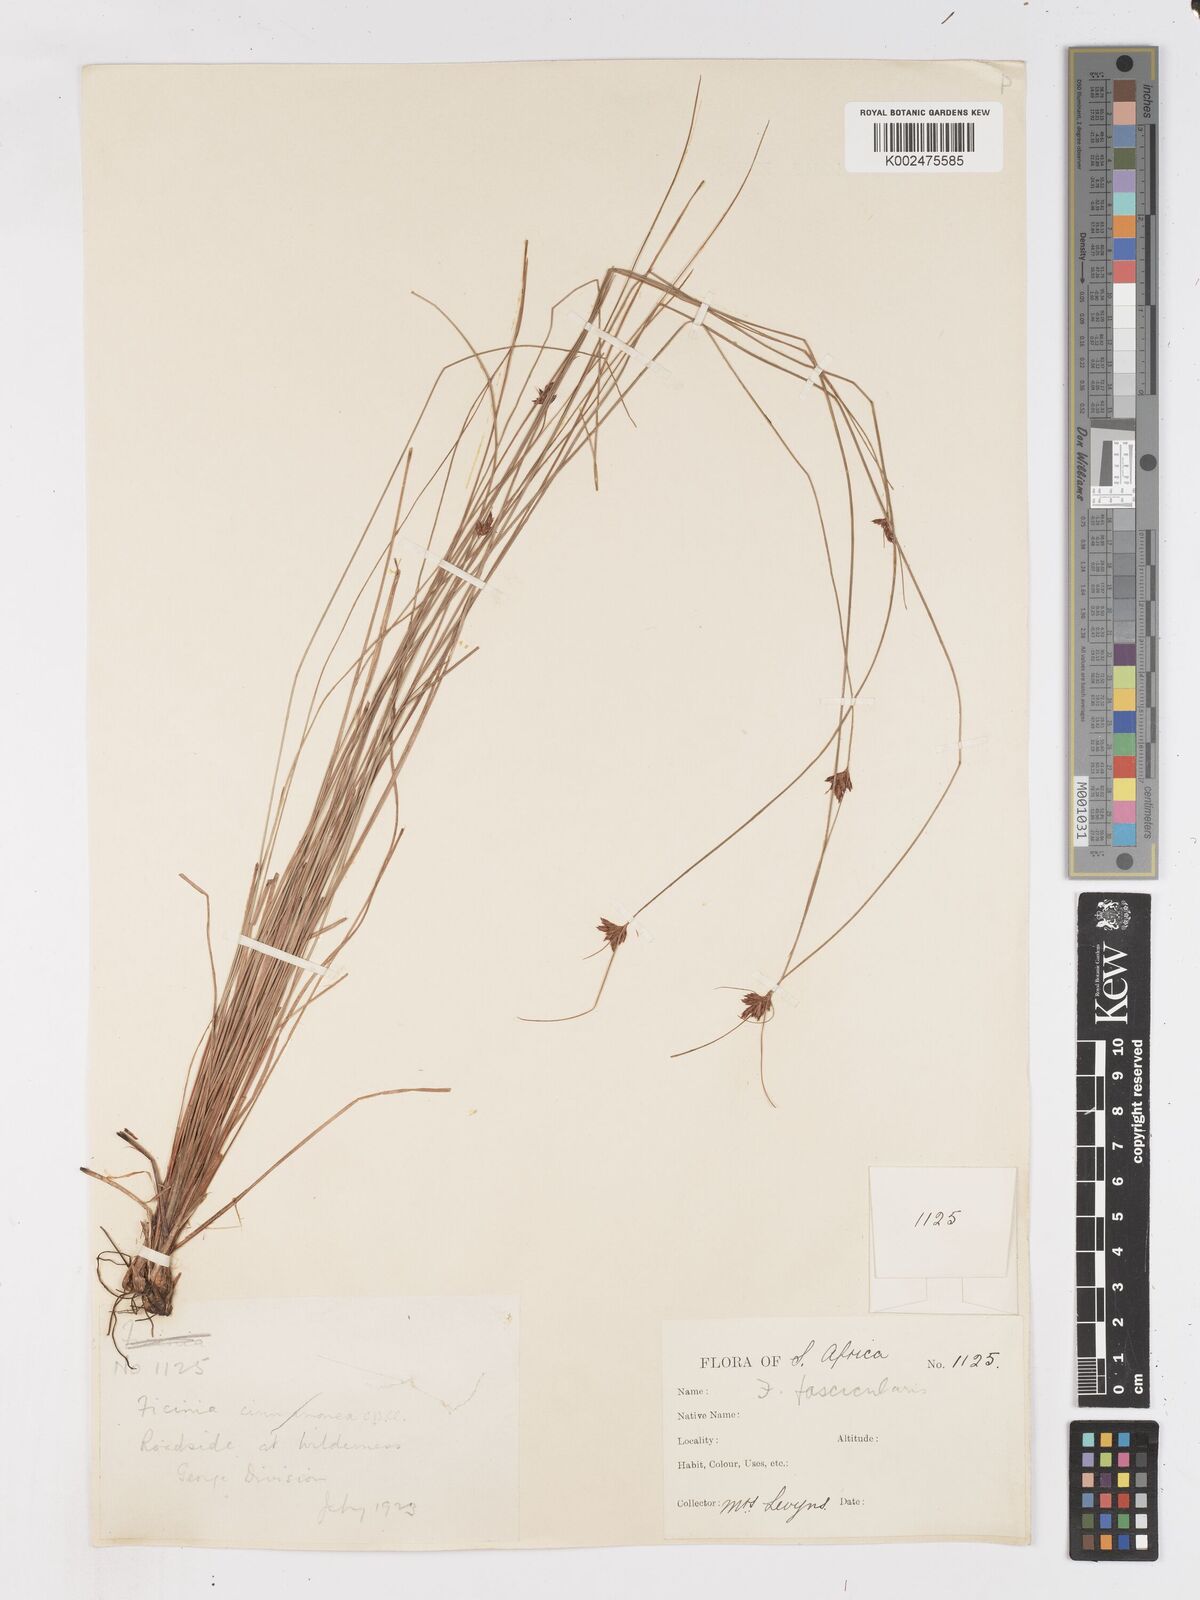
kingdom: Plantae
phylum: Tracheophyta
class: Liliopsida
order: Poales
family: Cyperaceae
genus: Ficinia
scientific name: Ficinia fascicularis
